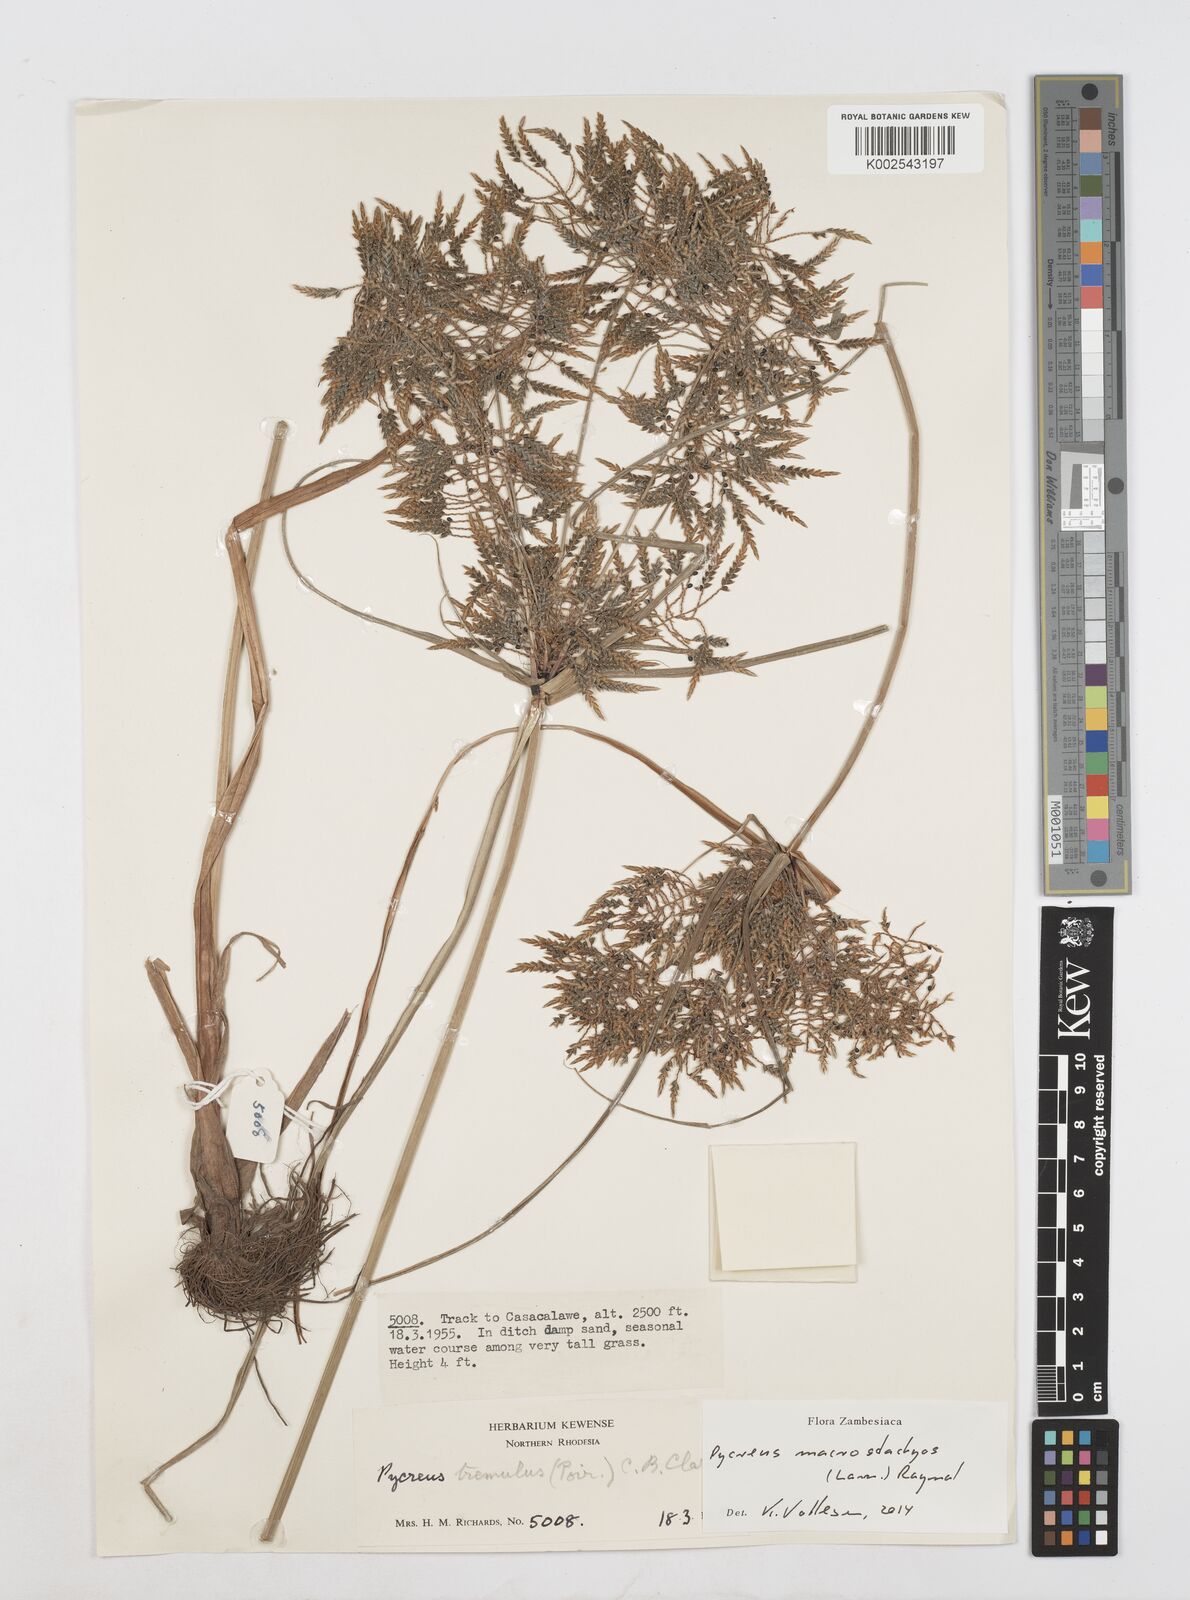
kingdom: Plantae
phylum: Tracheophyta
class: Liliopsida
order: Poales
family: Cyperaceae
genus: Cyperus
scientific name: Cyperus macrostachyos
